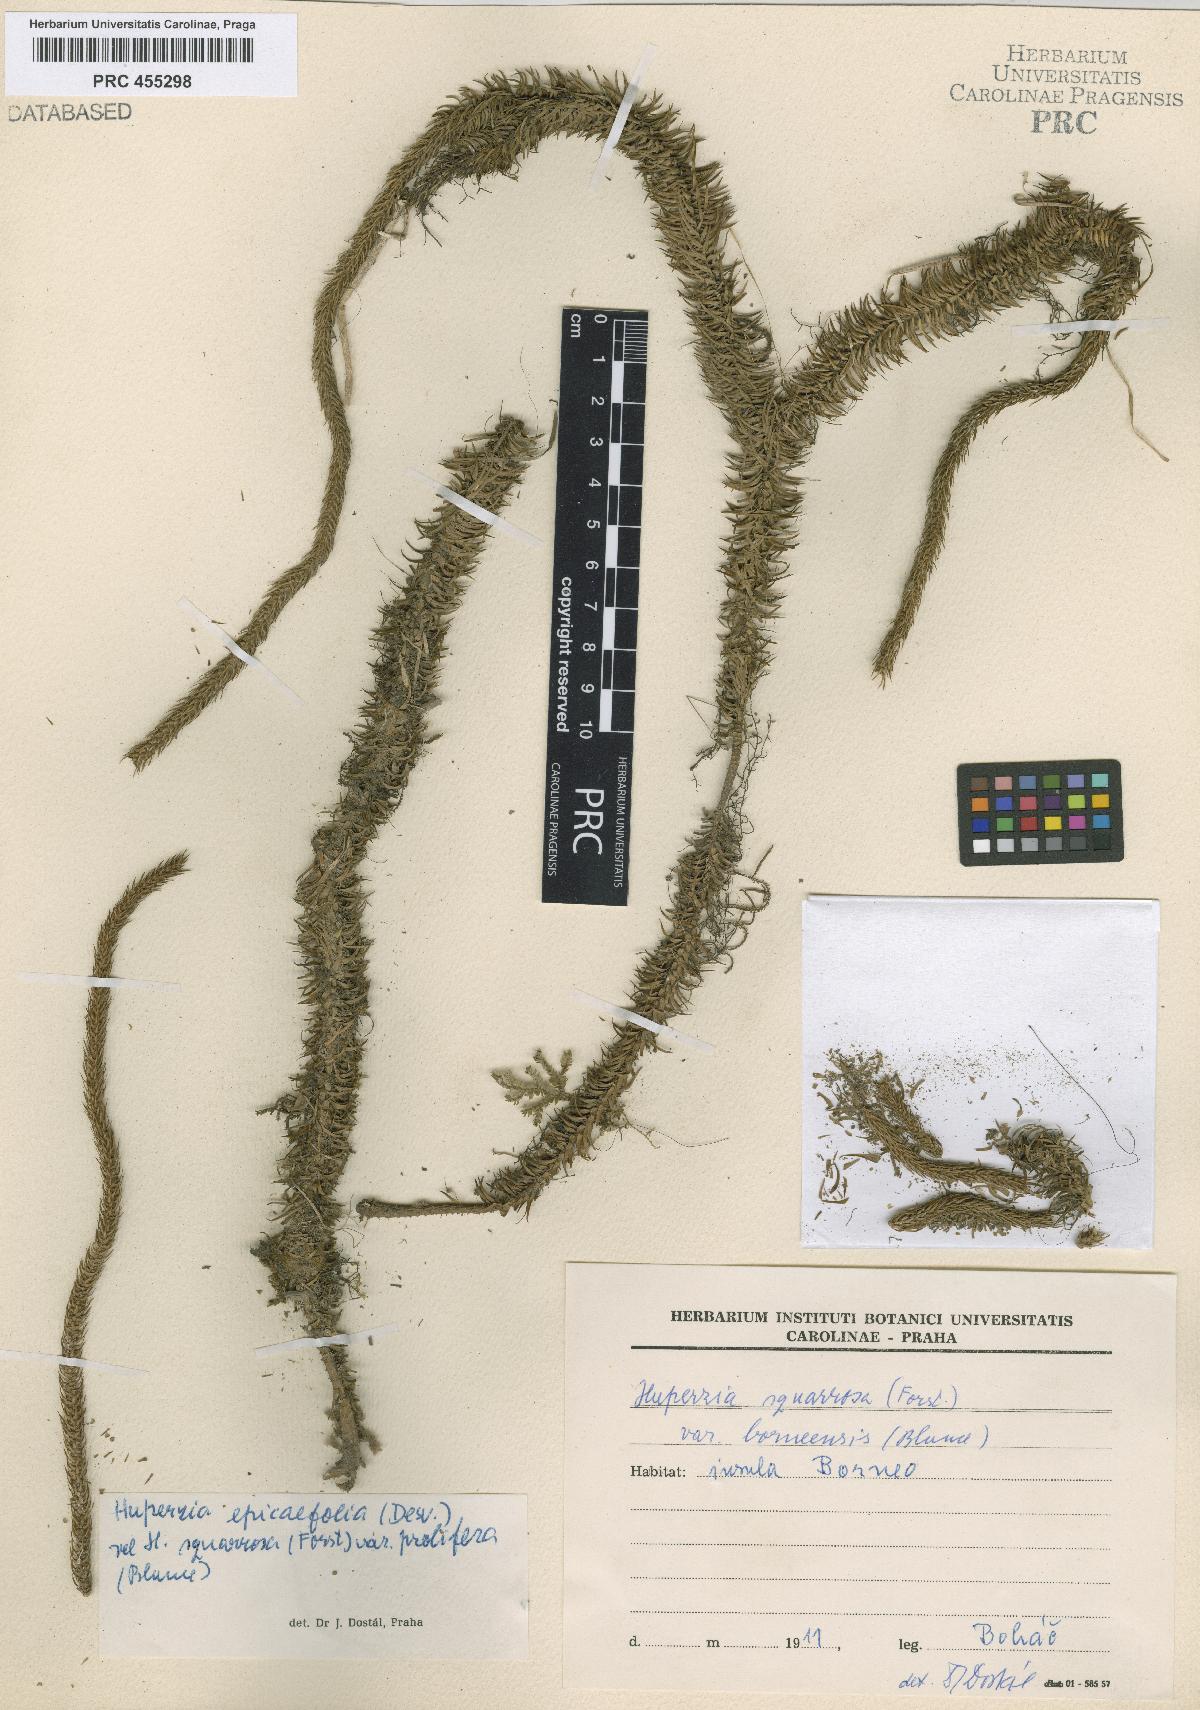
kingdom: Plantae
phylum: Tracheophyta
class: Lycopodiopsida
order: Lycopodiales
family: Lycopodiaceae
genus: Phlegmariurus
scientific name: Phlegmariurus squarrosus
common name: Rock tassel-fern
